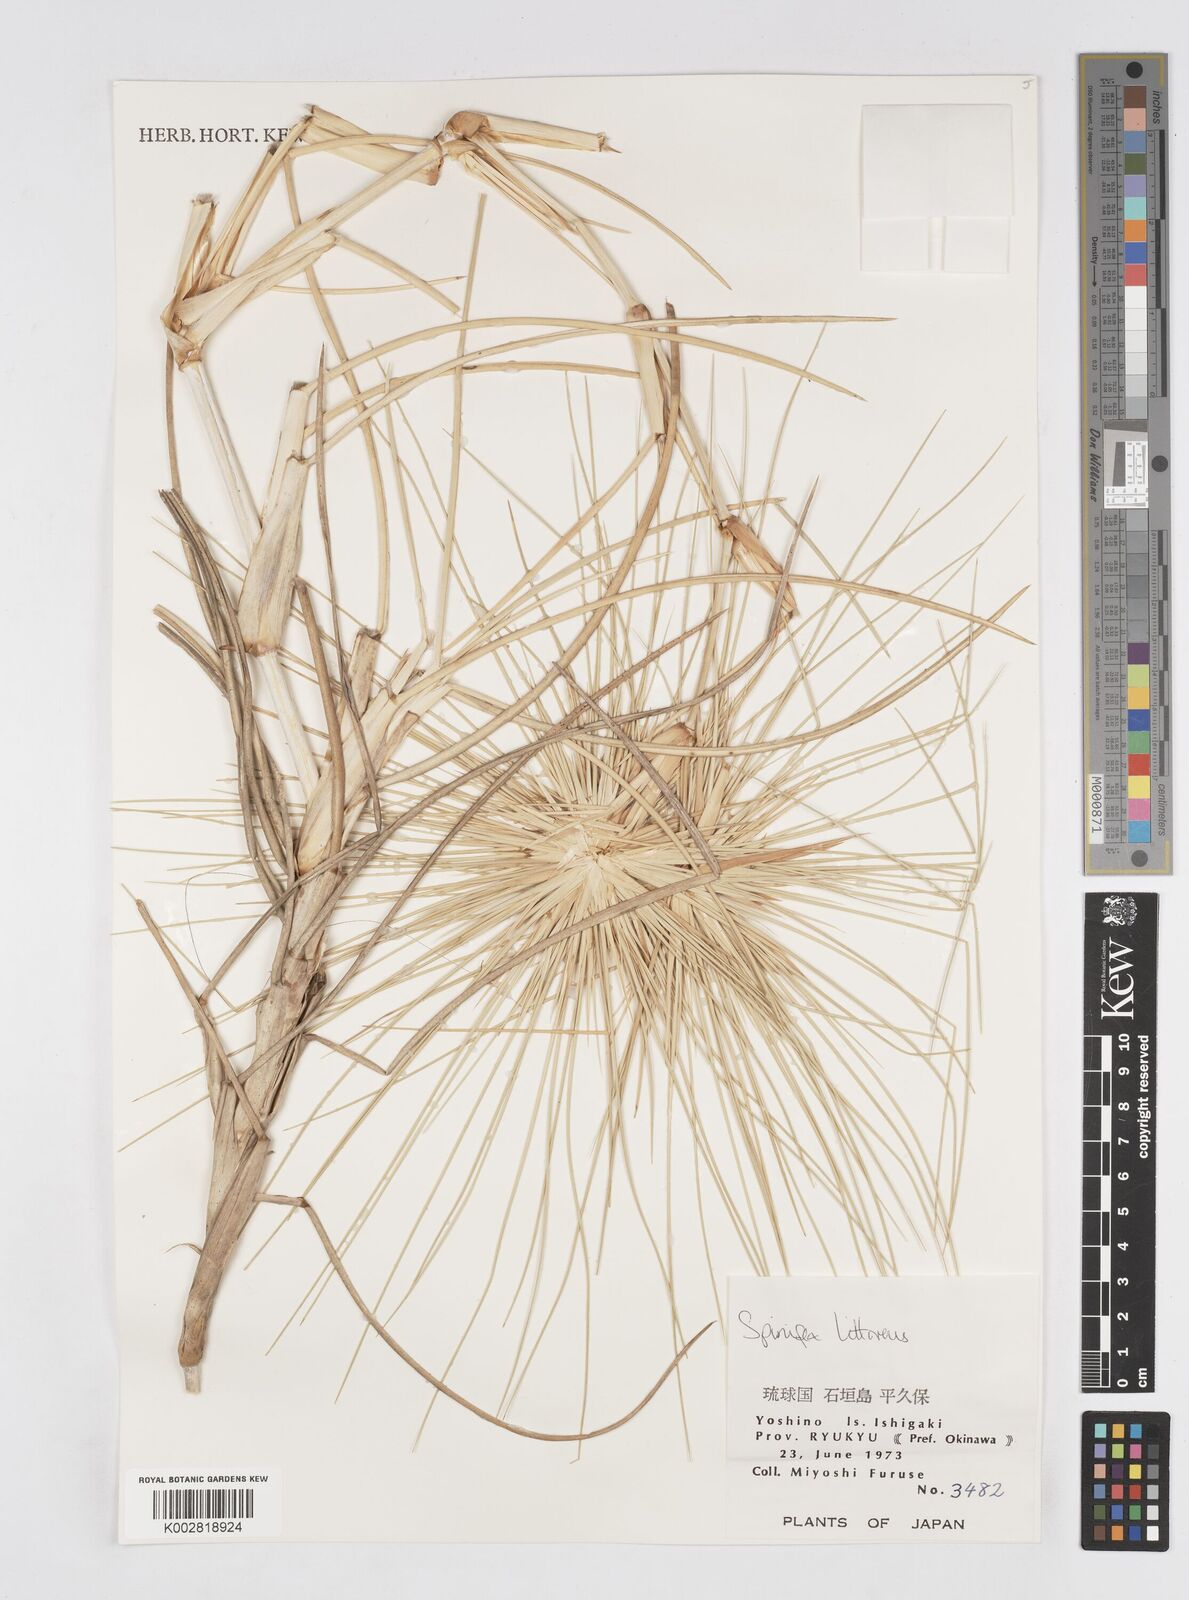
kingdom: Plantae
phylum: Tracheophyta
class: Liliopsida
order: Poales
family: Poaceae
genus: Spinifex
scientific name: Spinifex littoreus
